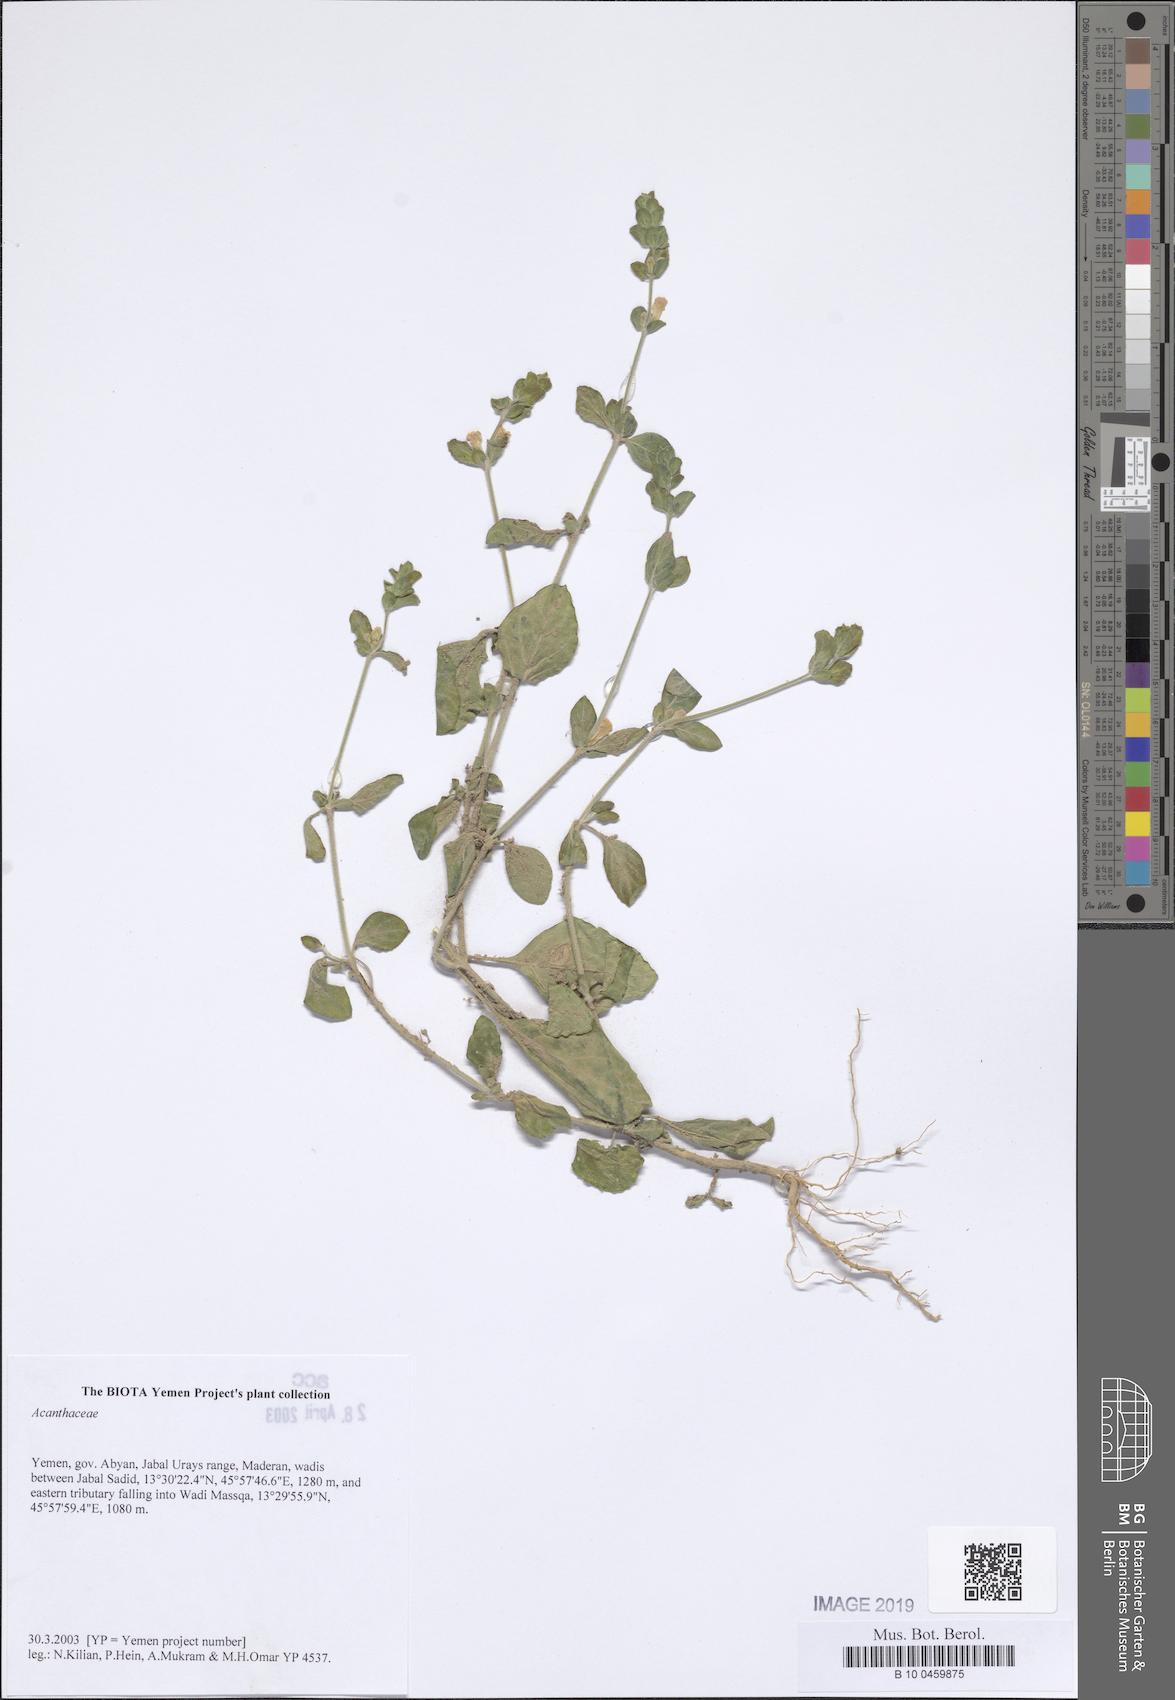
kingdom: Plantae
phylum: Tracheophyta
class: Magnoliopsida
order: Lamiales
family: Acanthaceae
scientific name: Acanthaceae
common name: Acanthaceae
